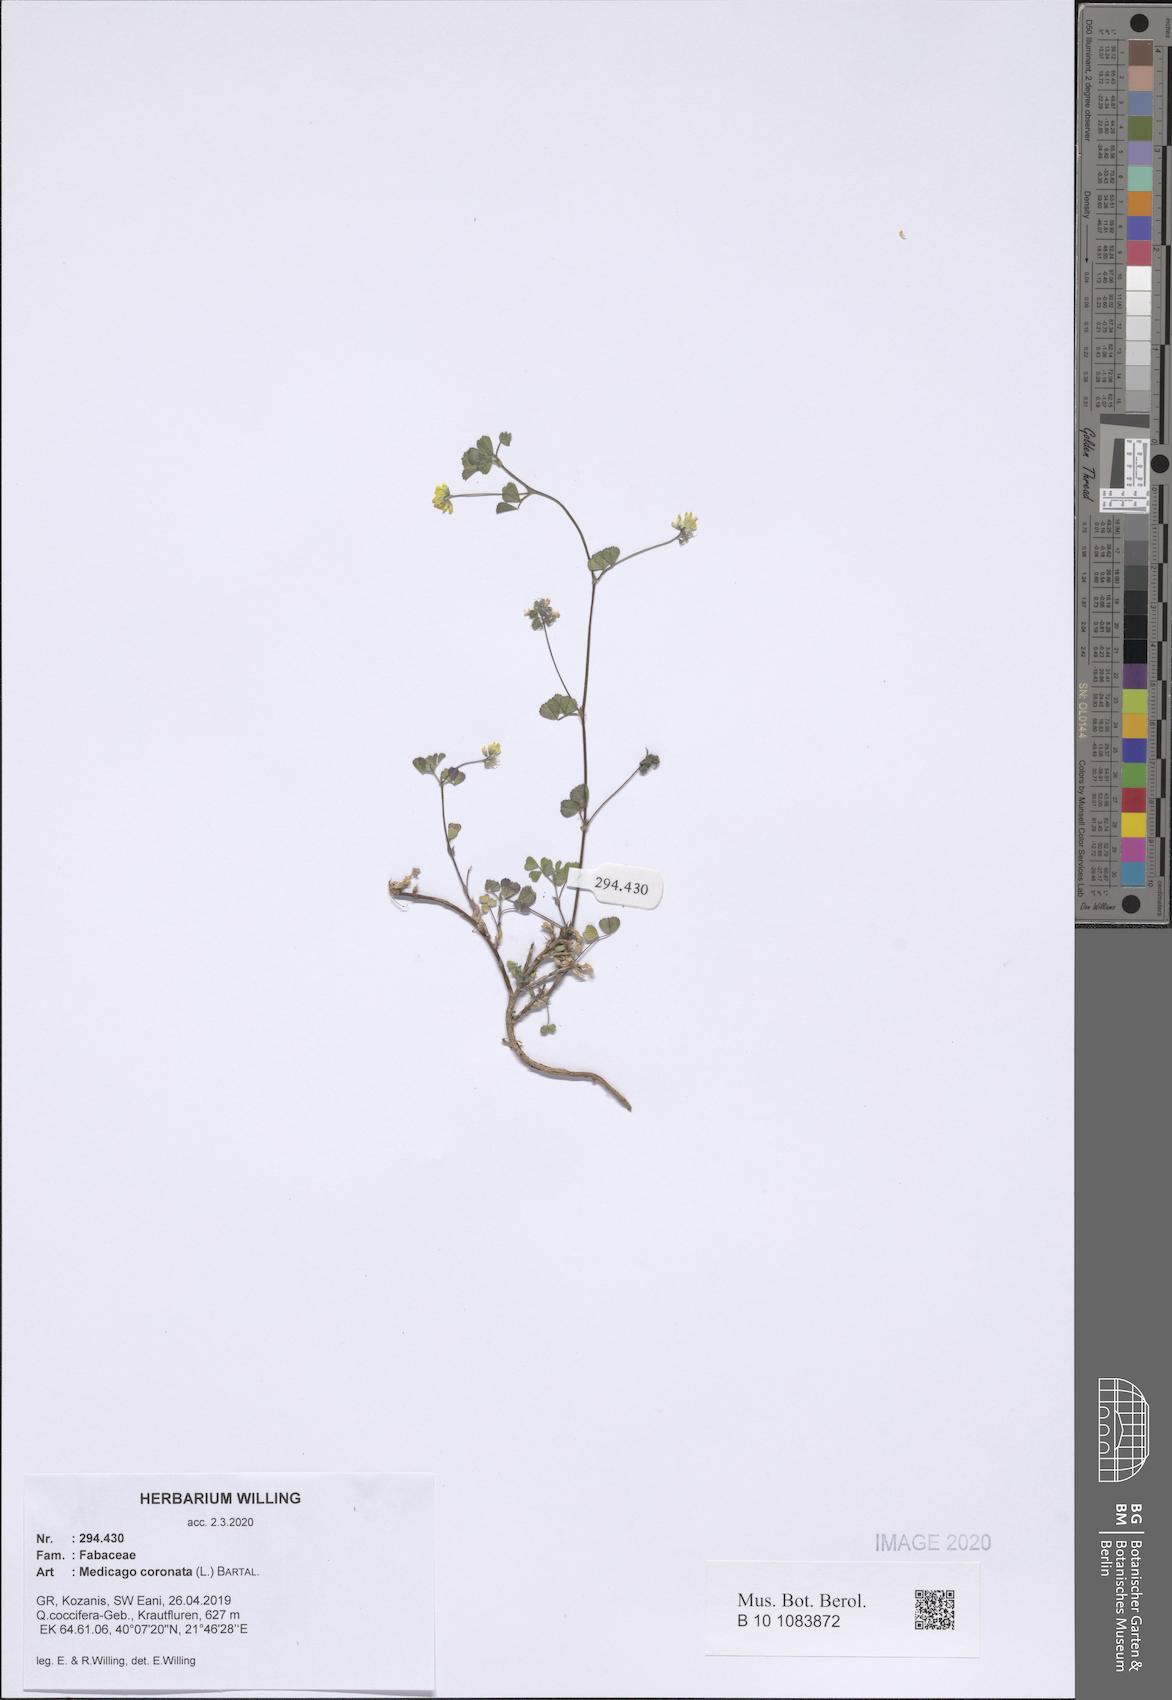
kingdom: Plantae
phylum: Tracheophyta
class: Magnoliopsida
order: Fabales
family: Fabaceae
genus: Medicago
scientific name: Medicago coronata
